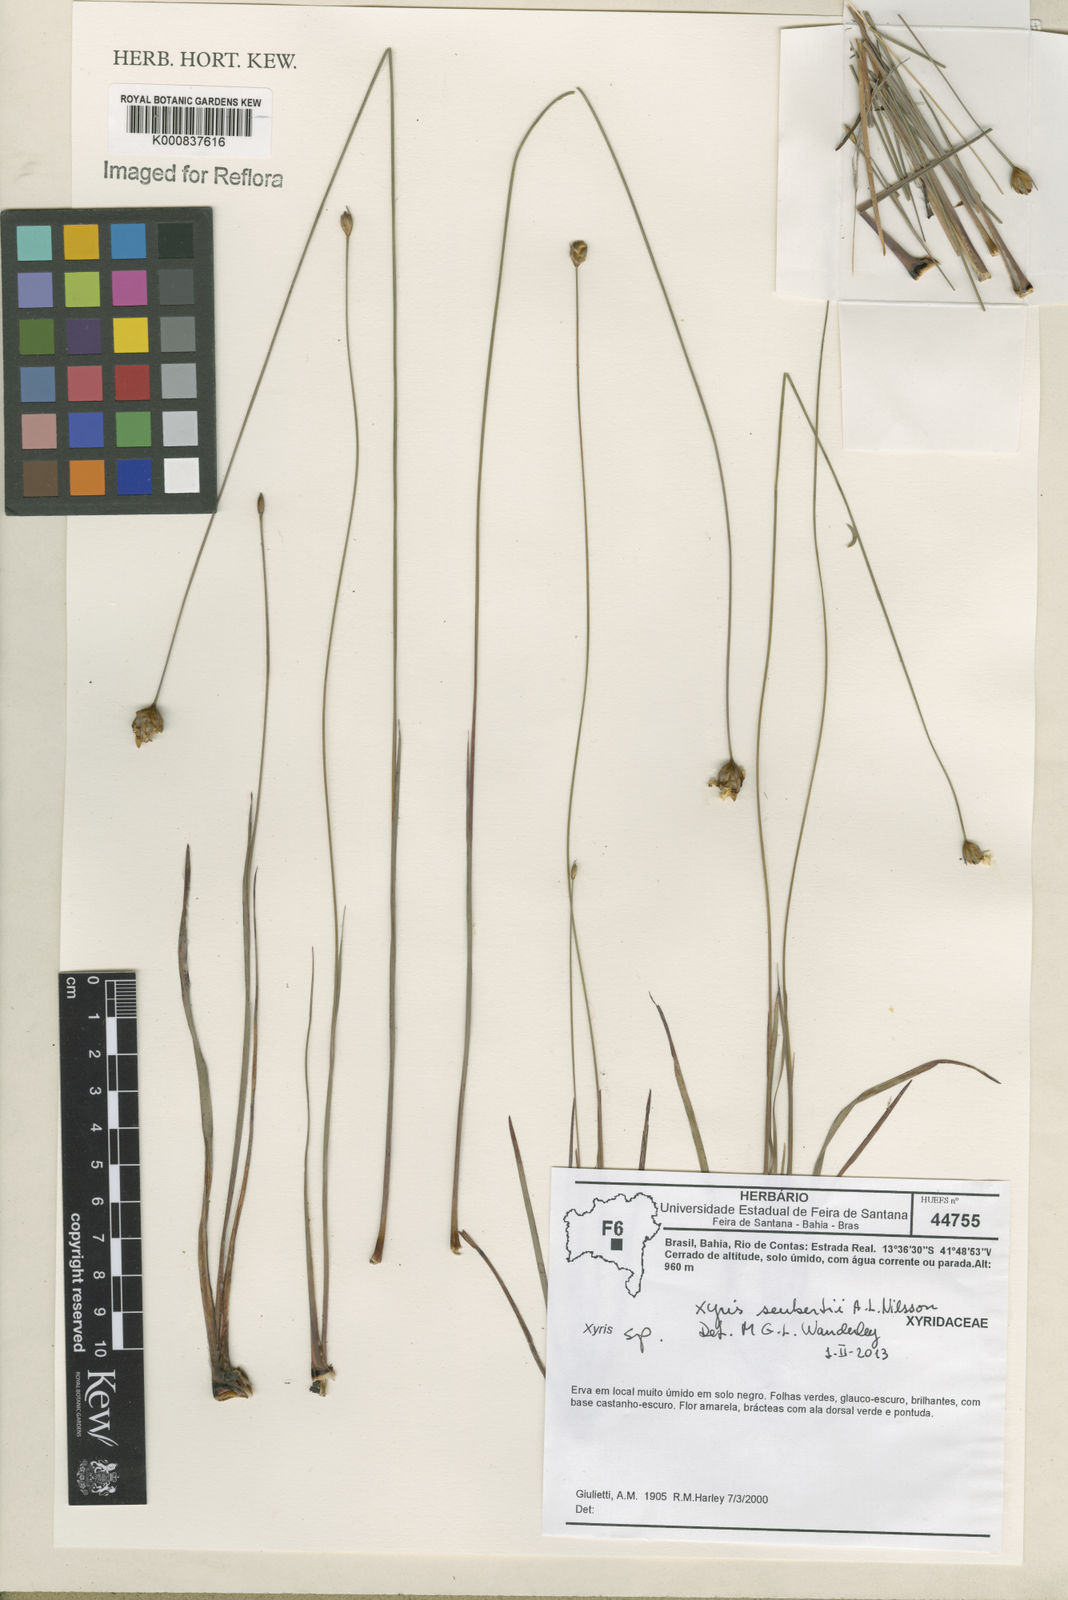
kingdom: Plantae
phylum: Tracheophyta
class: Liliopsida
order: Poales
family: Xyridaceae
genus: Xyris
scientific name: Xyris seubertii
